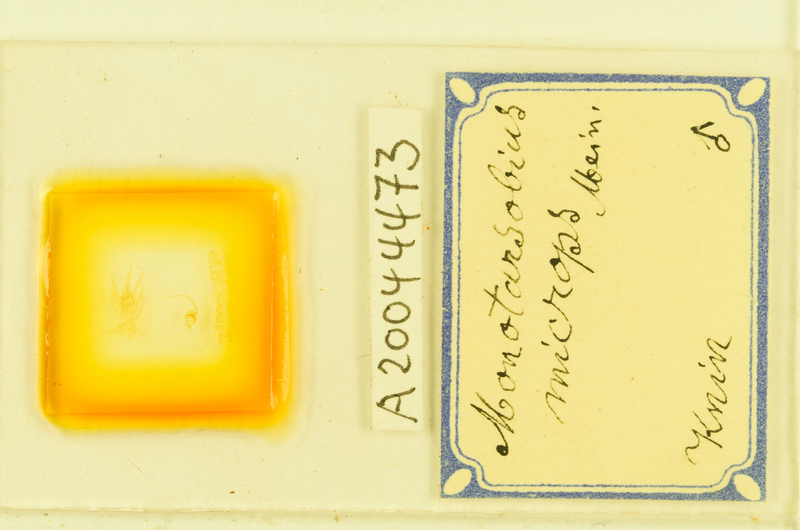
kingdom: Animalia
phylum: Arthropoda
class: Chilopoda
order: Lithobiomorpha
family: Lithobiidae
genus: Monotarsobius
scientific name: Monotarsobius microps
